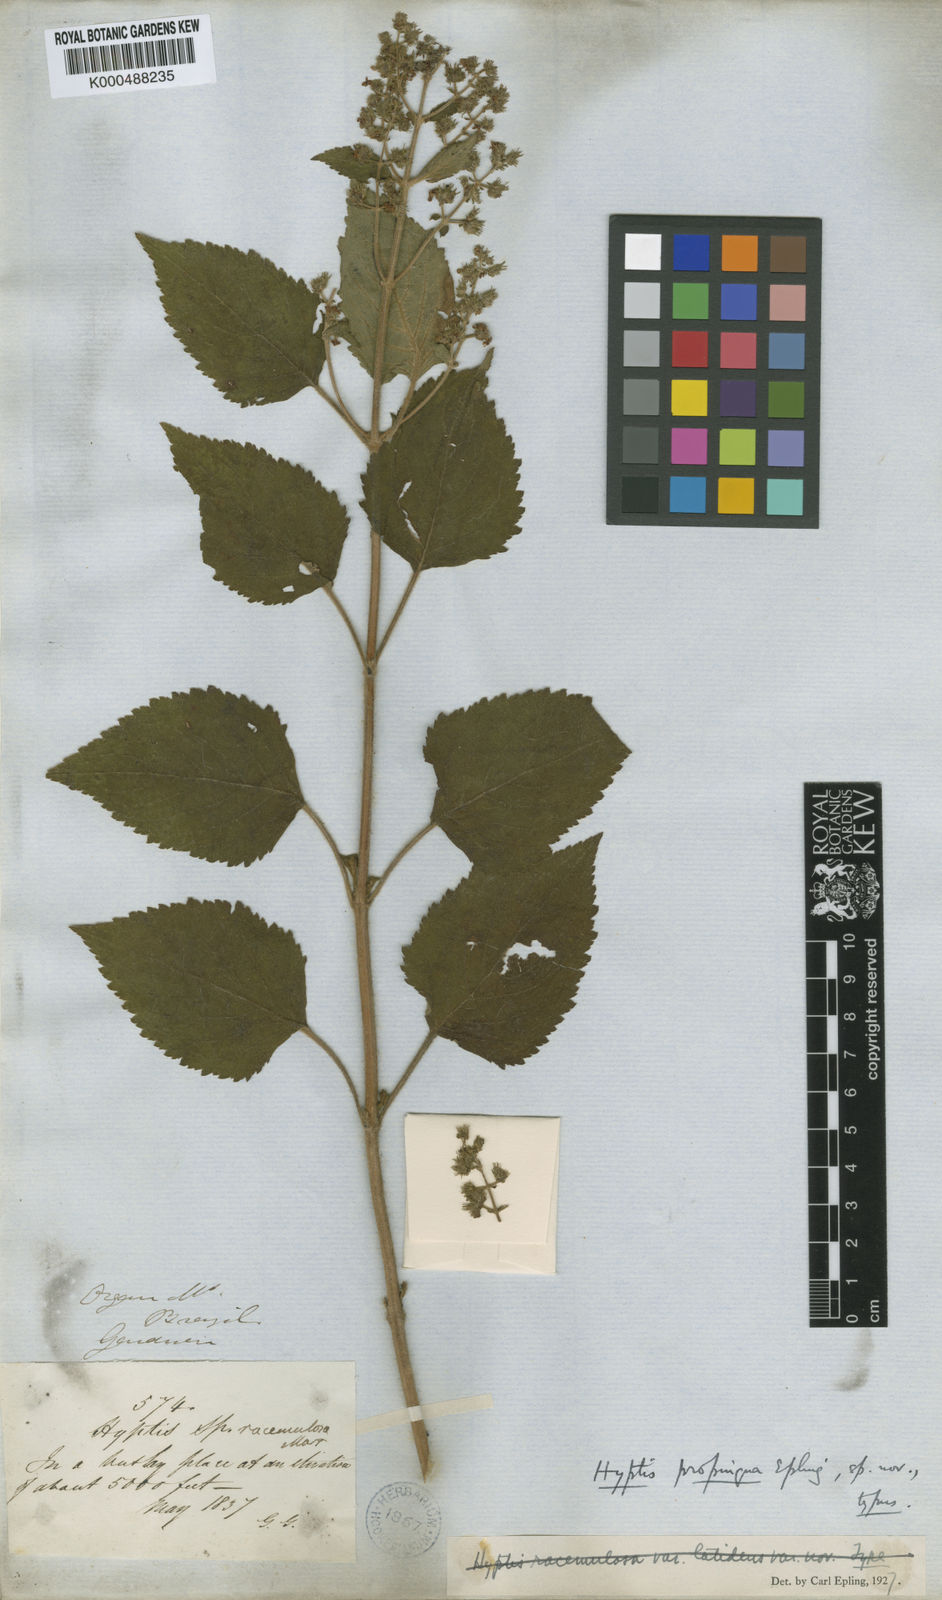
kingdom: Plantae
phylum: Tracheophyta
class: Magnoliopsida
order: Lamiales
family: Lamiaceae
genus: Hyptis
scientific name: Hyptis
